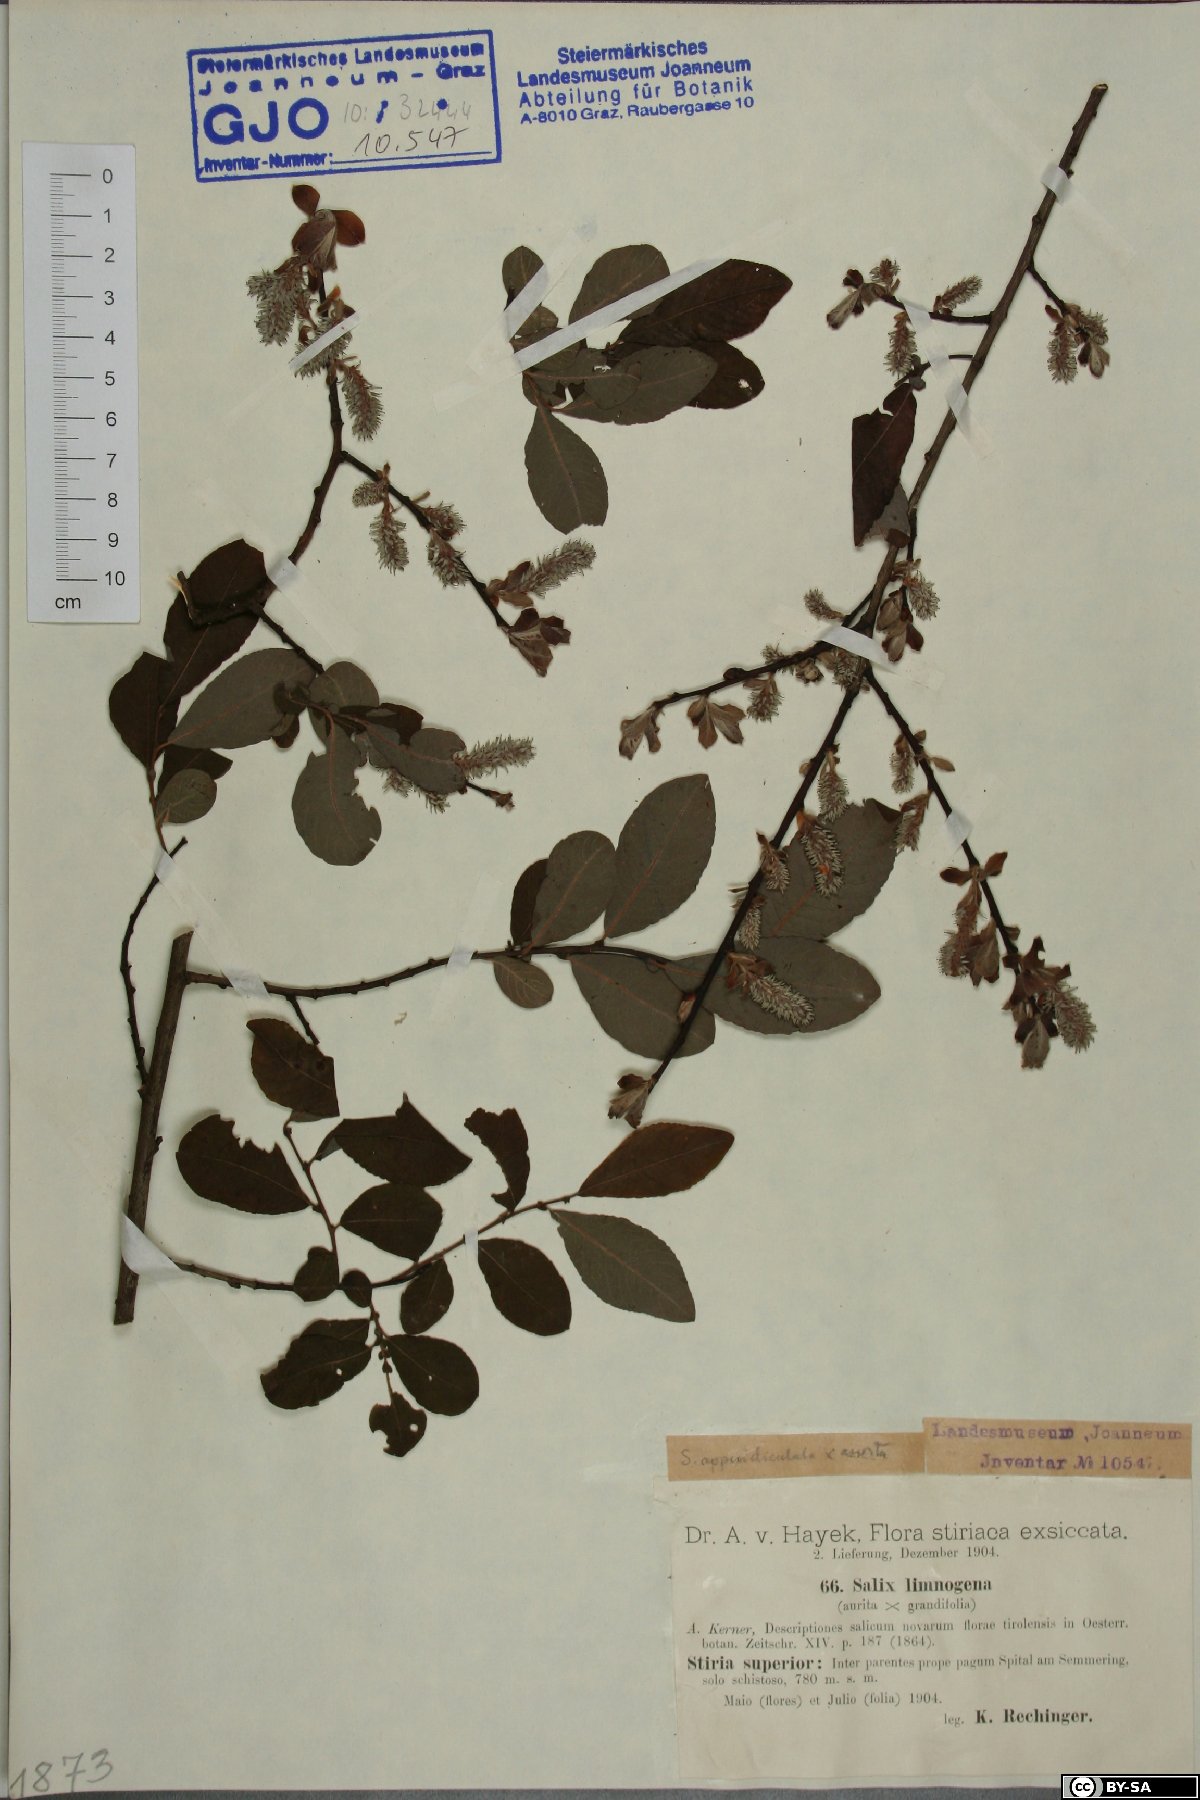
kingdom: Plantae
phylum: Tracheophyta
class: Magnoliopsida
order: Malpighiales
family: Salicaceae
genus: Salix
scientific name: Salix limnogena
